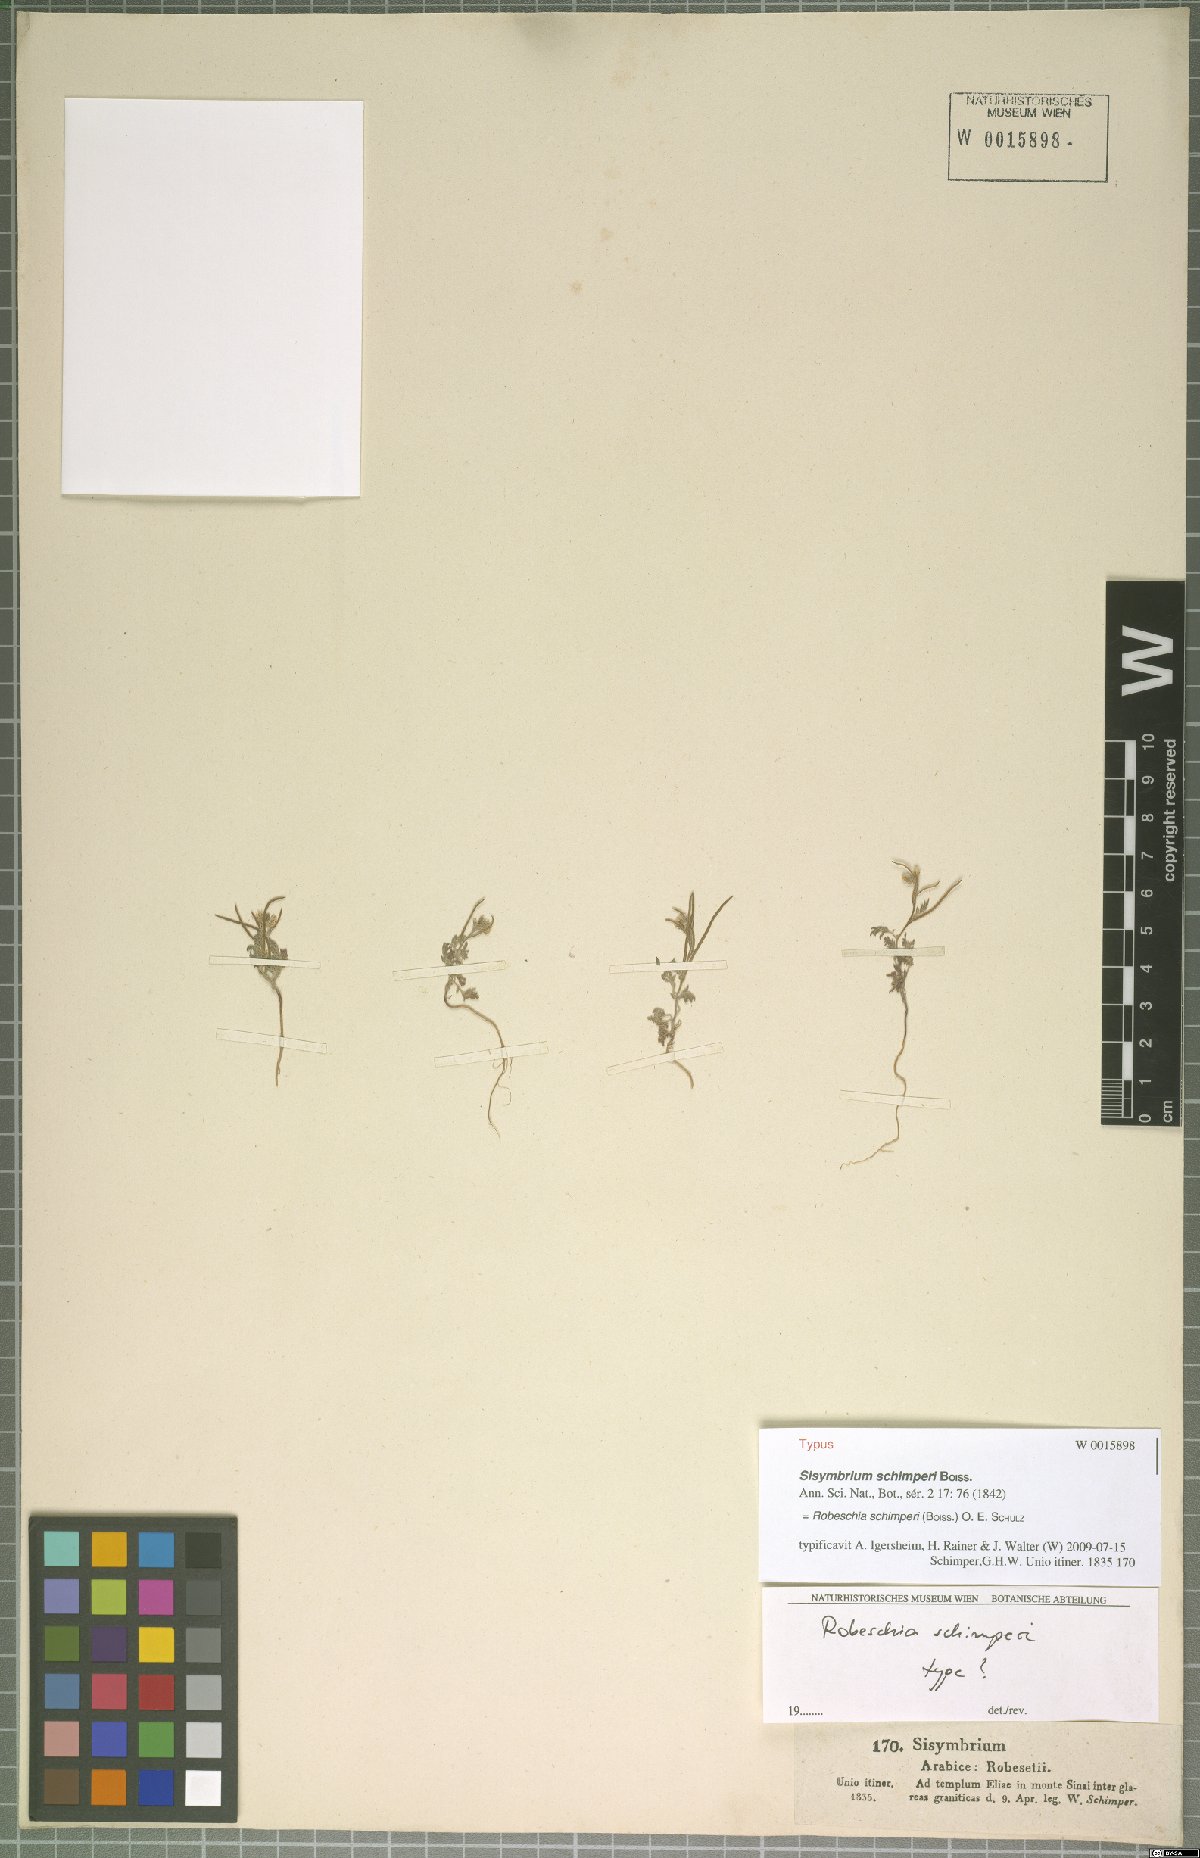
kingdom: Plantae
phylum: Tracheophyta
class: Magnoliopsida
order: Brassicales
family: Brassicaceae
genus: Robeschia
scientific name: Robeschia schimperi
